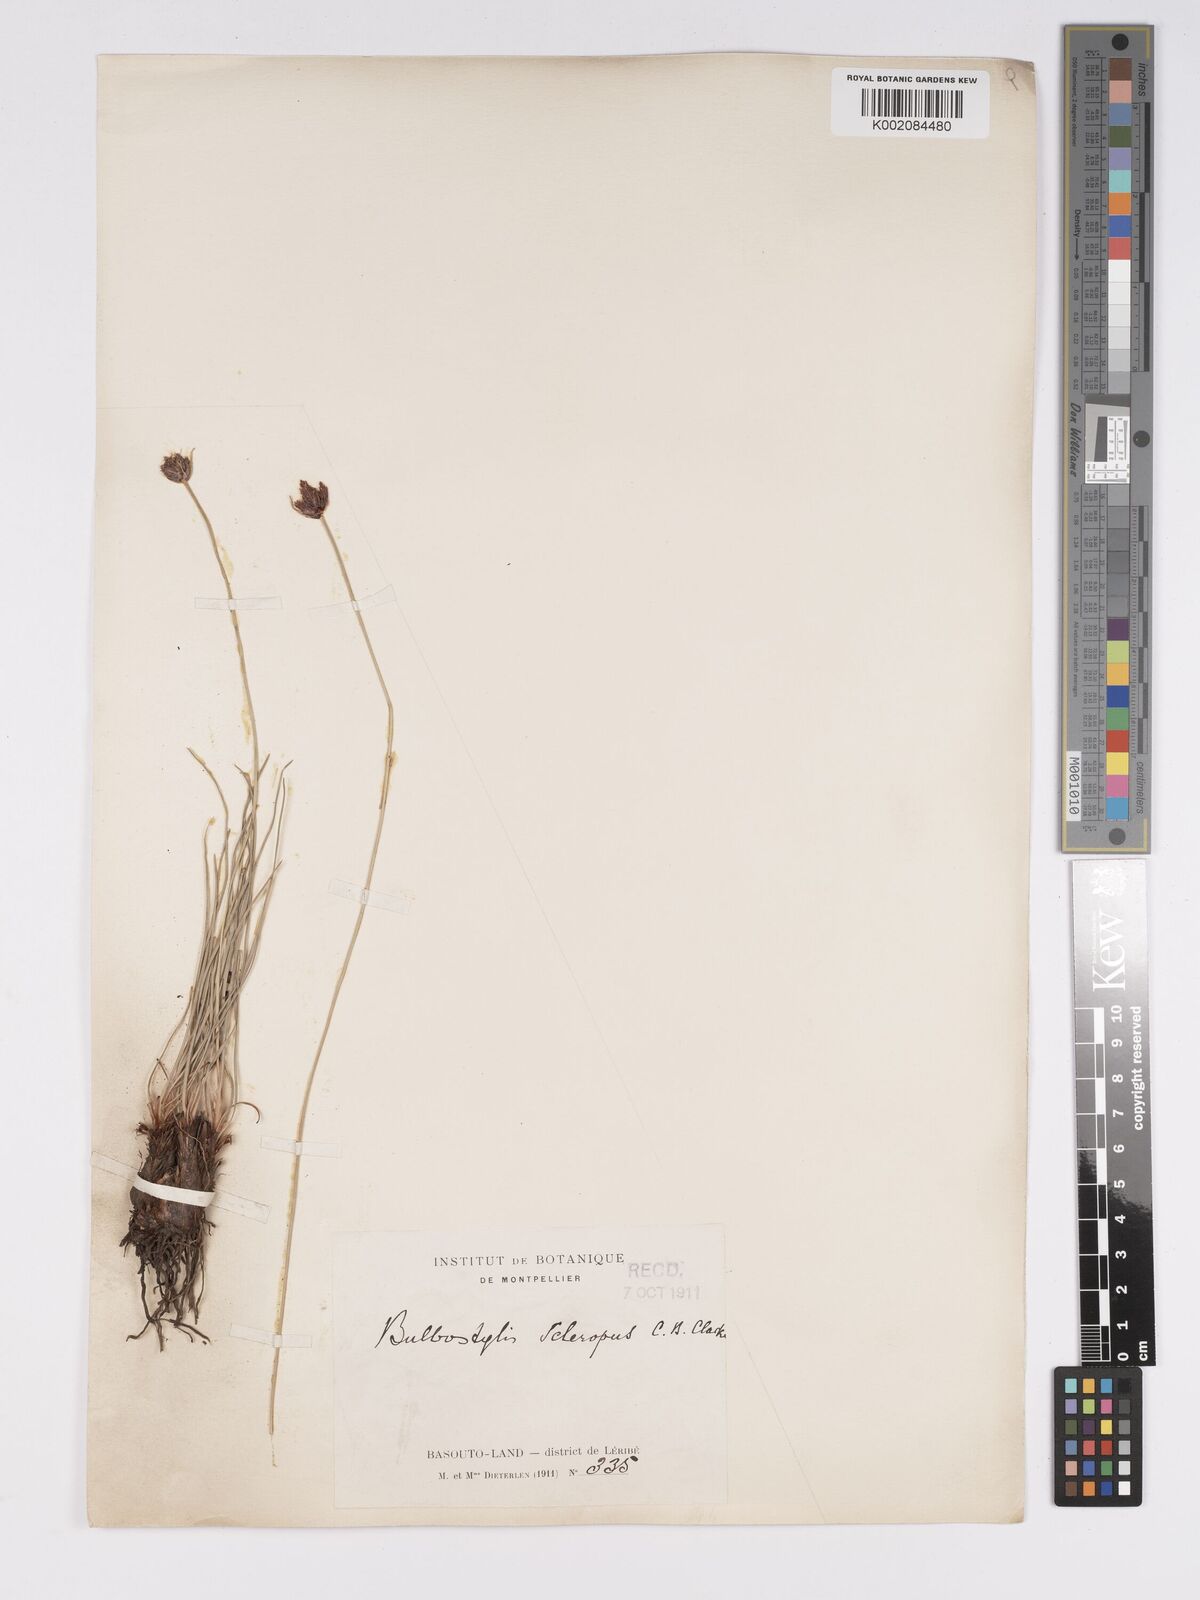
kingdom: Plantae
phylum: Tracheophyta
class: Liliopsida
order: Poales
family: Cyperaceae
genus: Bulbostylis
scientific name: Bulbostylis schoenoides
